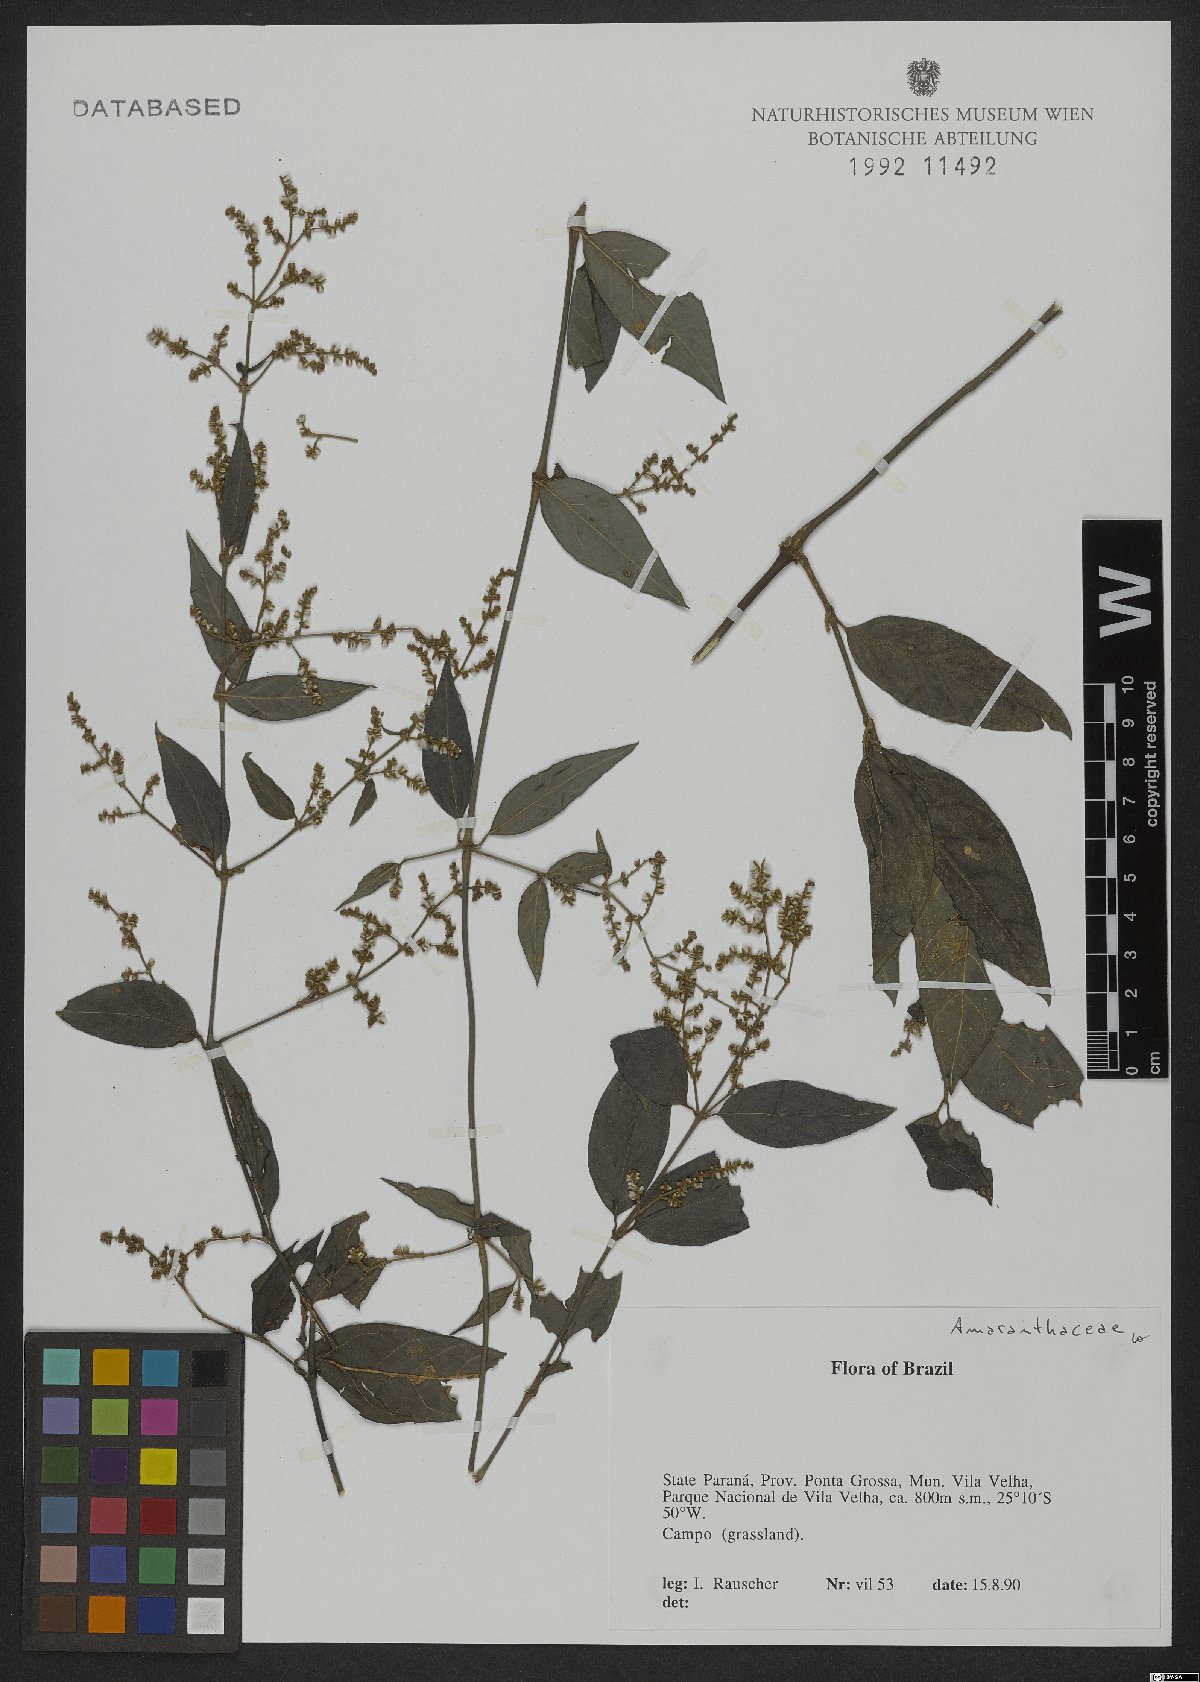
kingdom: Plantae
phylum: Tracheophyta
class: Magnoliopsida
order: Caryophyllales
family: Amaranthaceae
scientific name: Amaranthaceae
